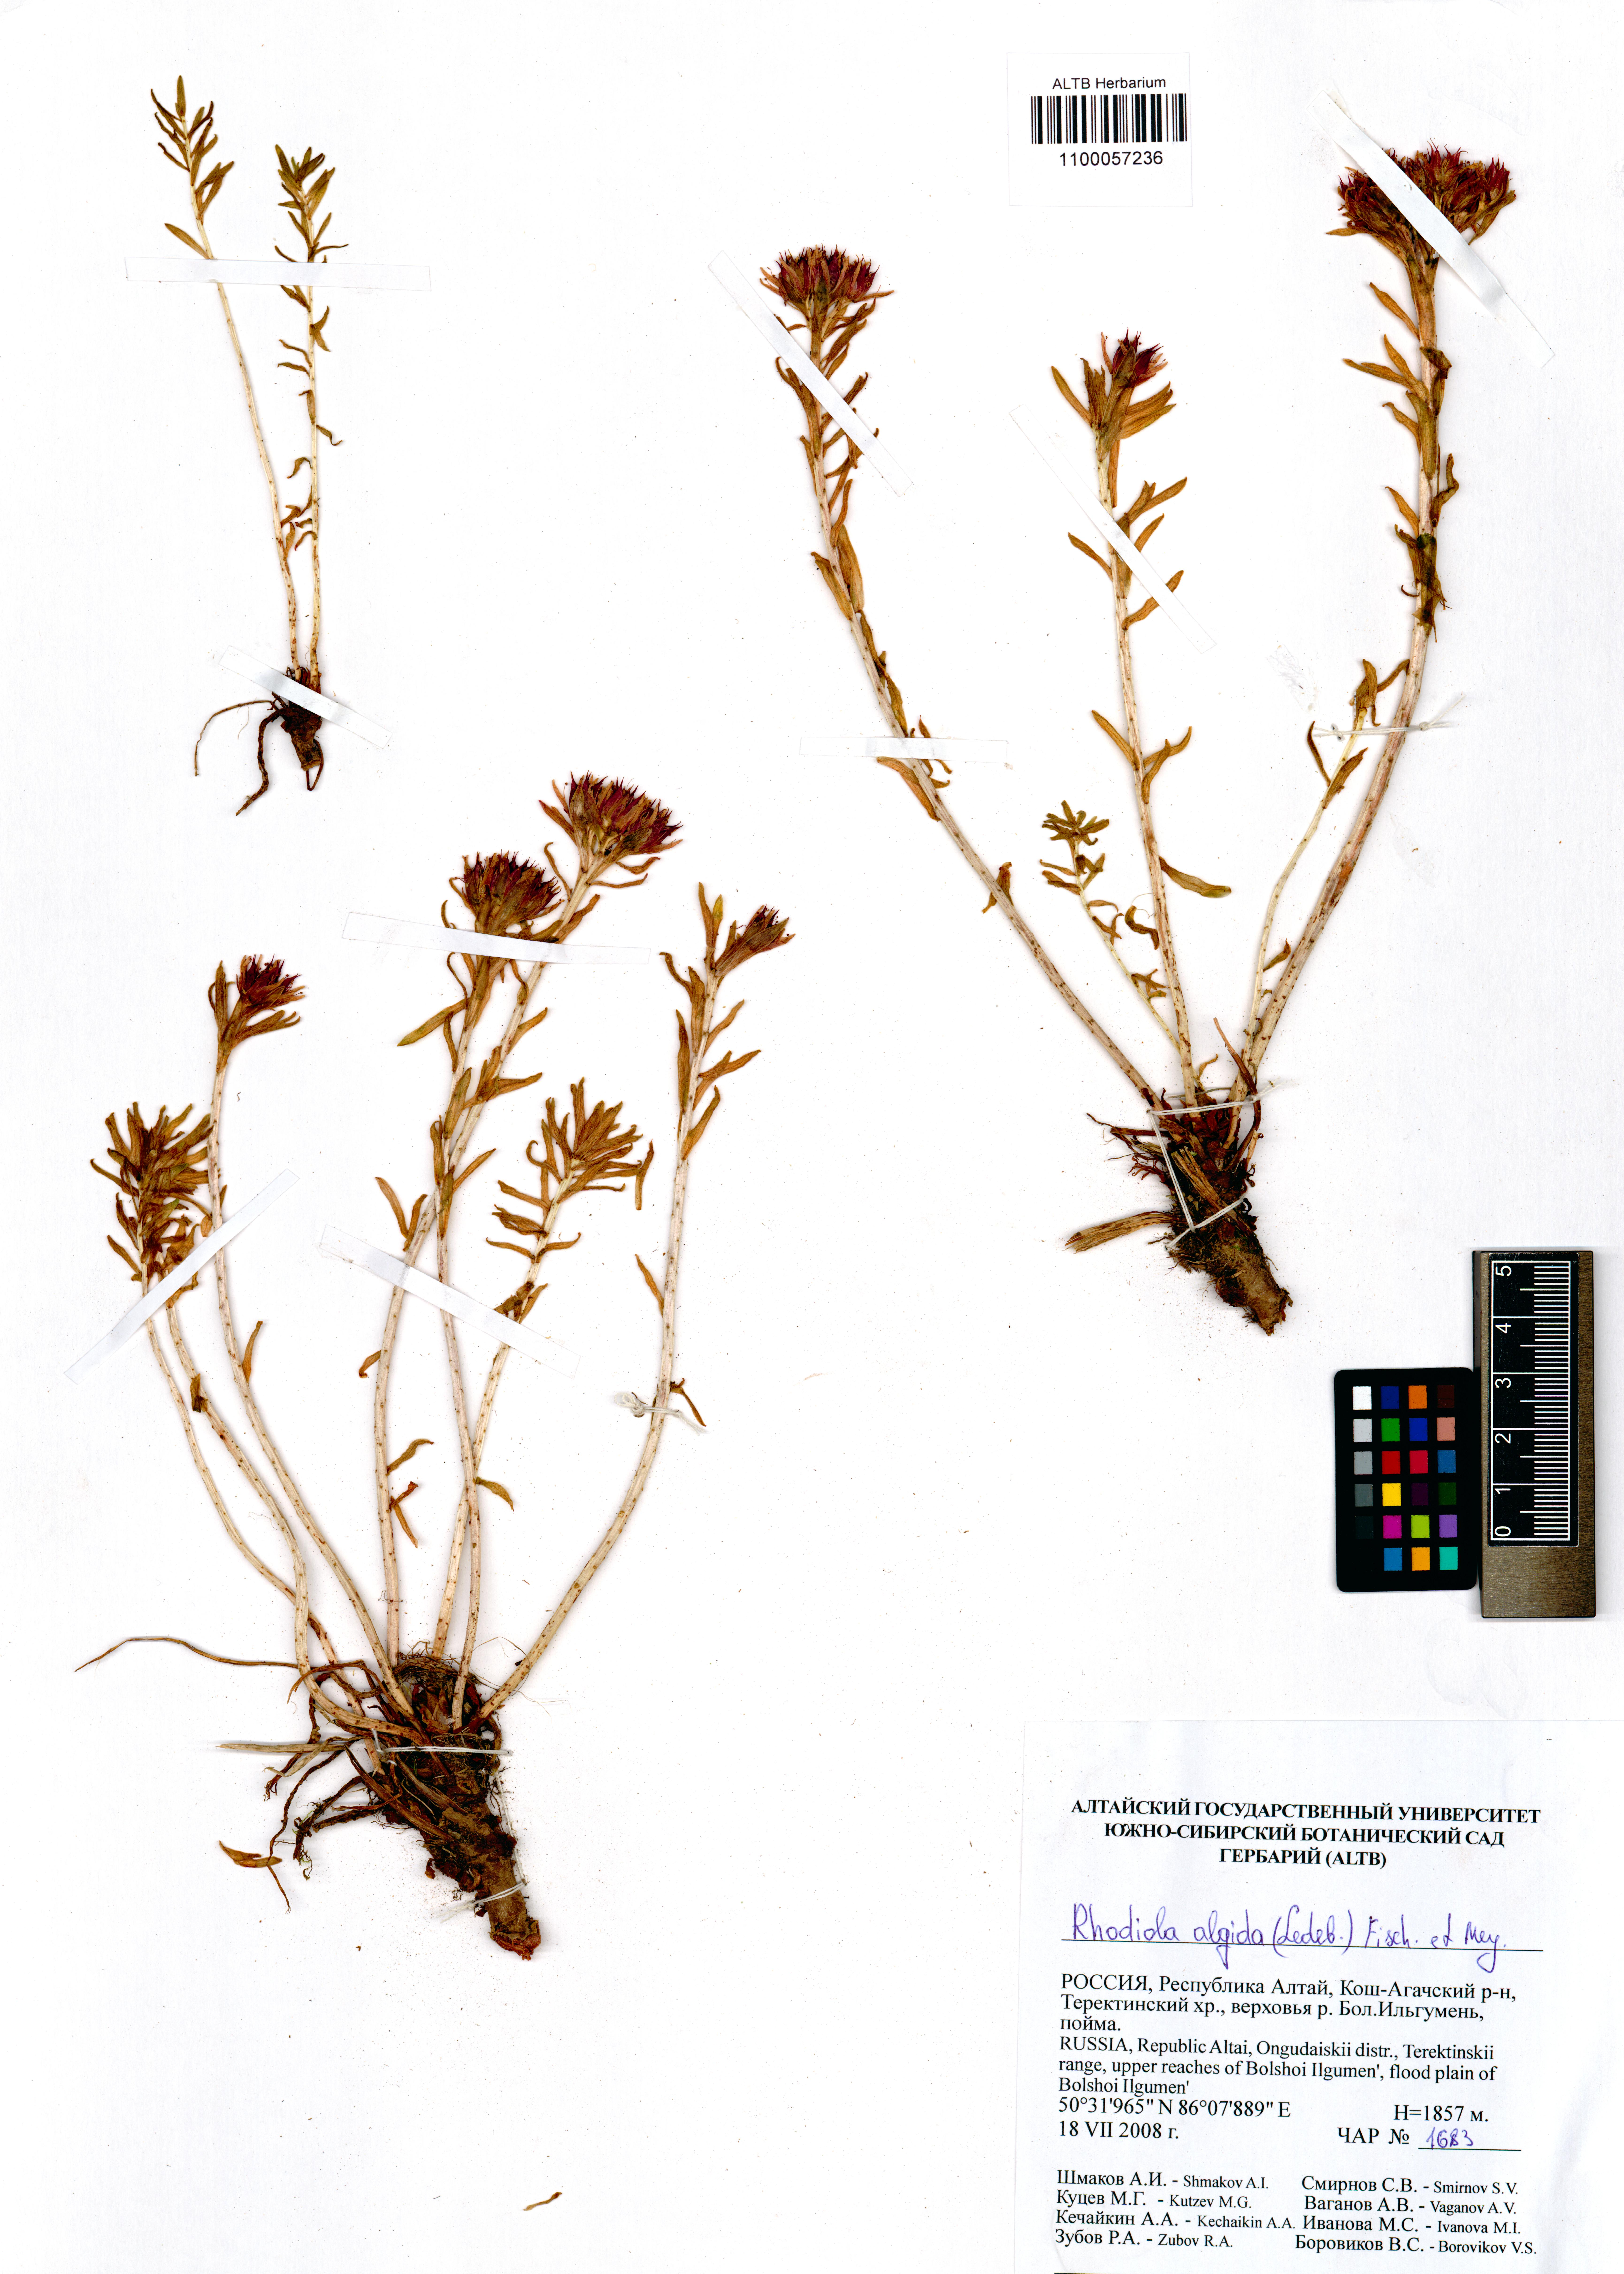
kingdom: Plantae
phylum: Tracheophyta
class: Magnoliopsida
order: Saxifragales
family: Crassulaceae
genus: Rhodiola
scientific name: Rhodiola algida
